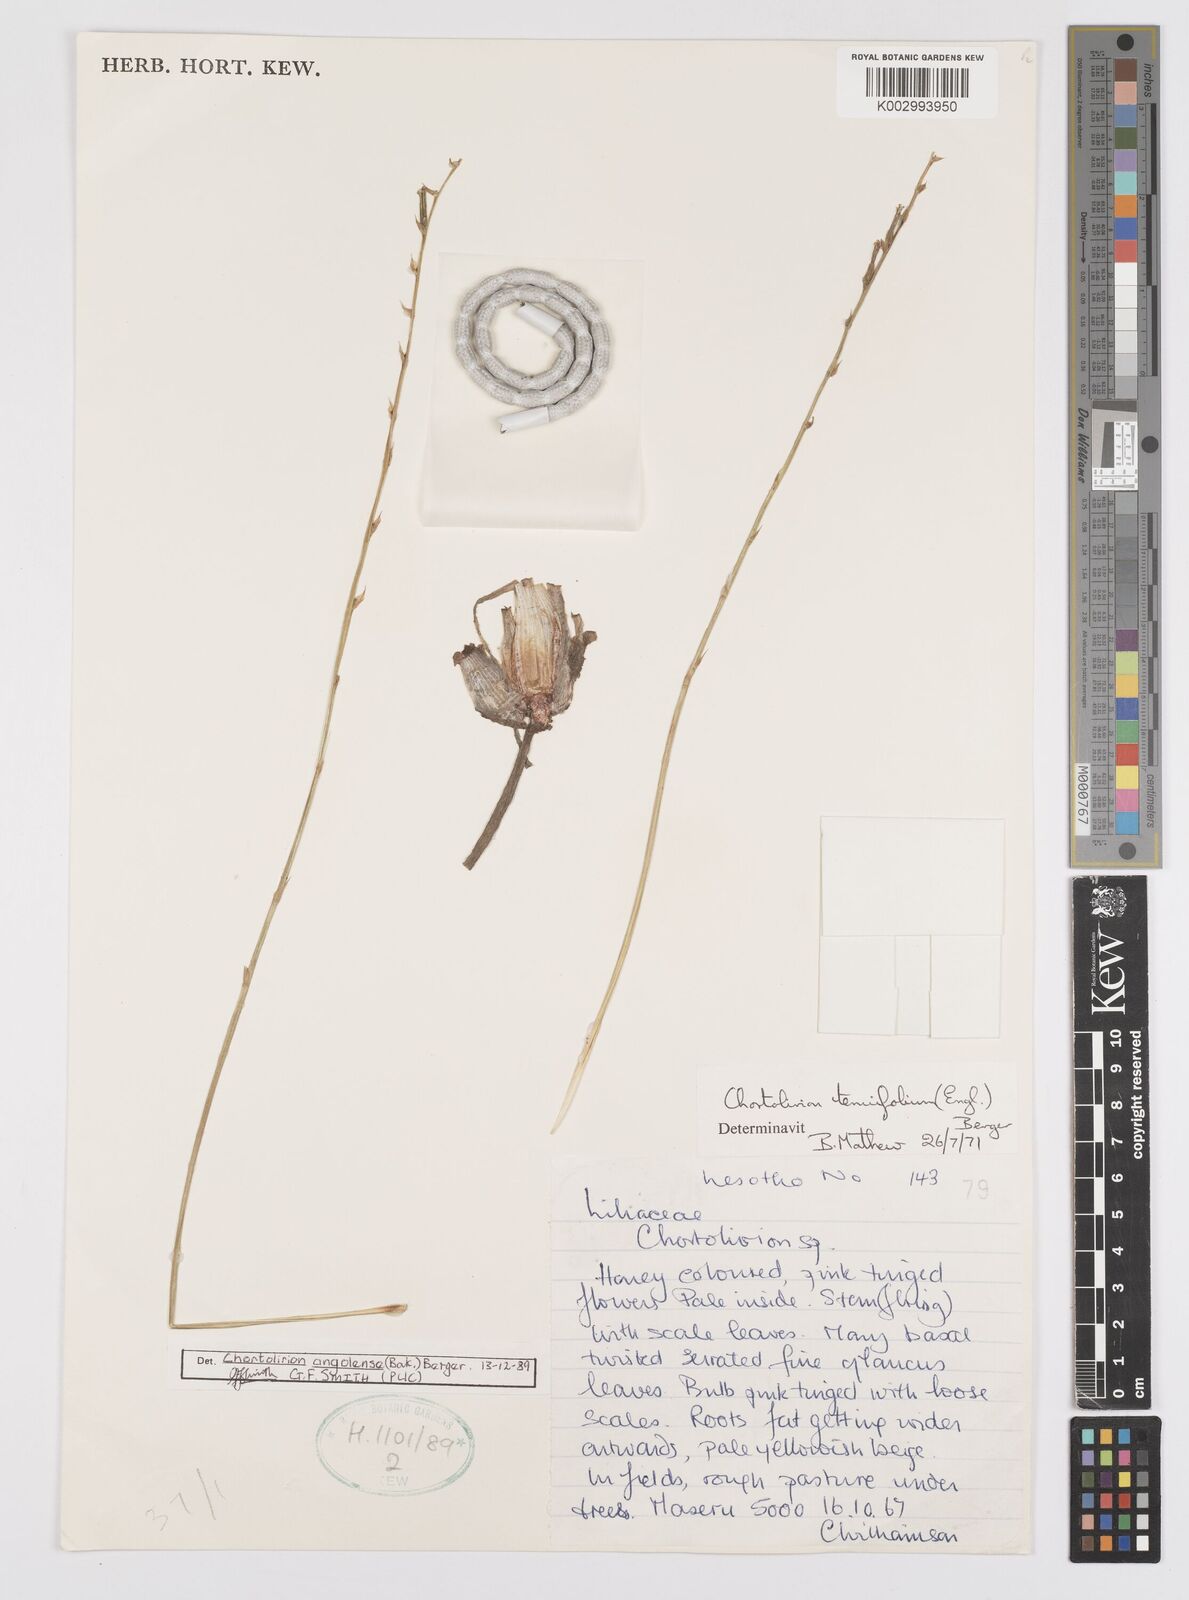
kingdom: Plantae
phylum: Tracheophyta
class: Liliopsida
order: Asparagales
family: Asphodelaceae
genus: Aloe
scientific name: Aloe welwitschii
